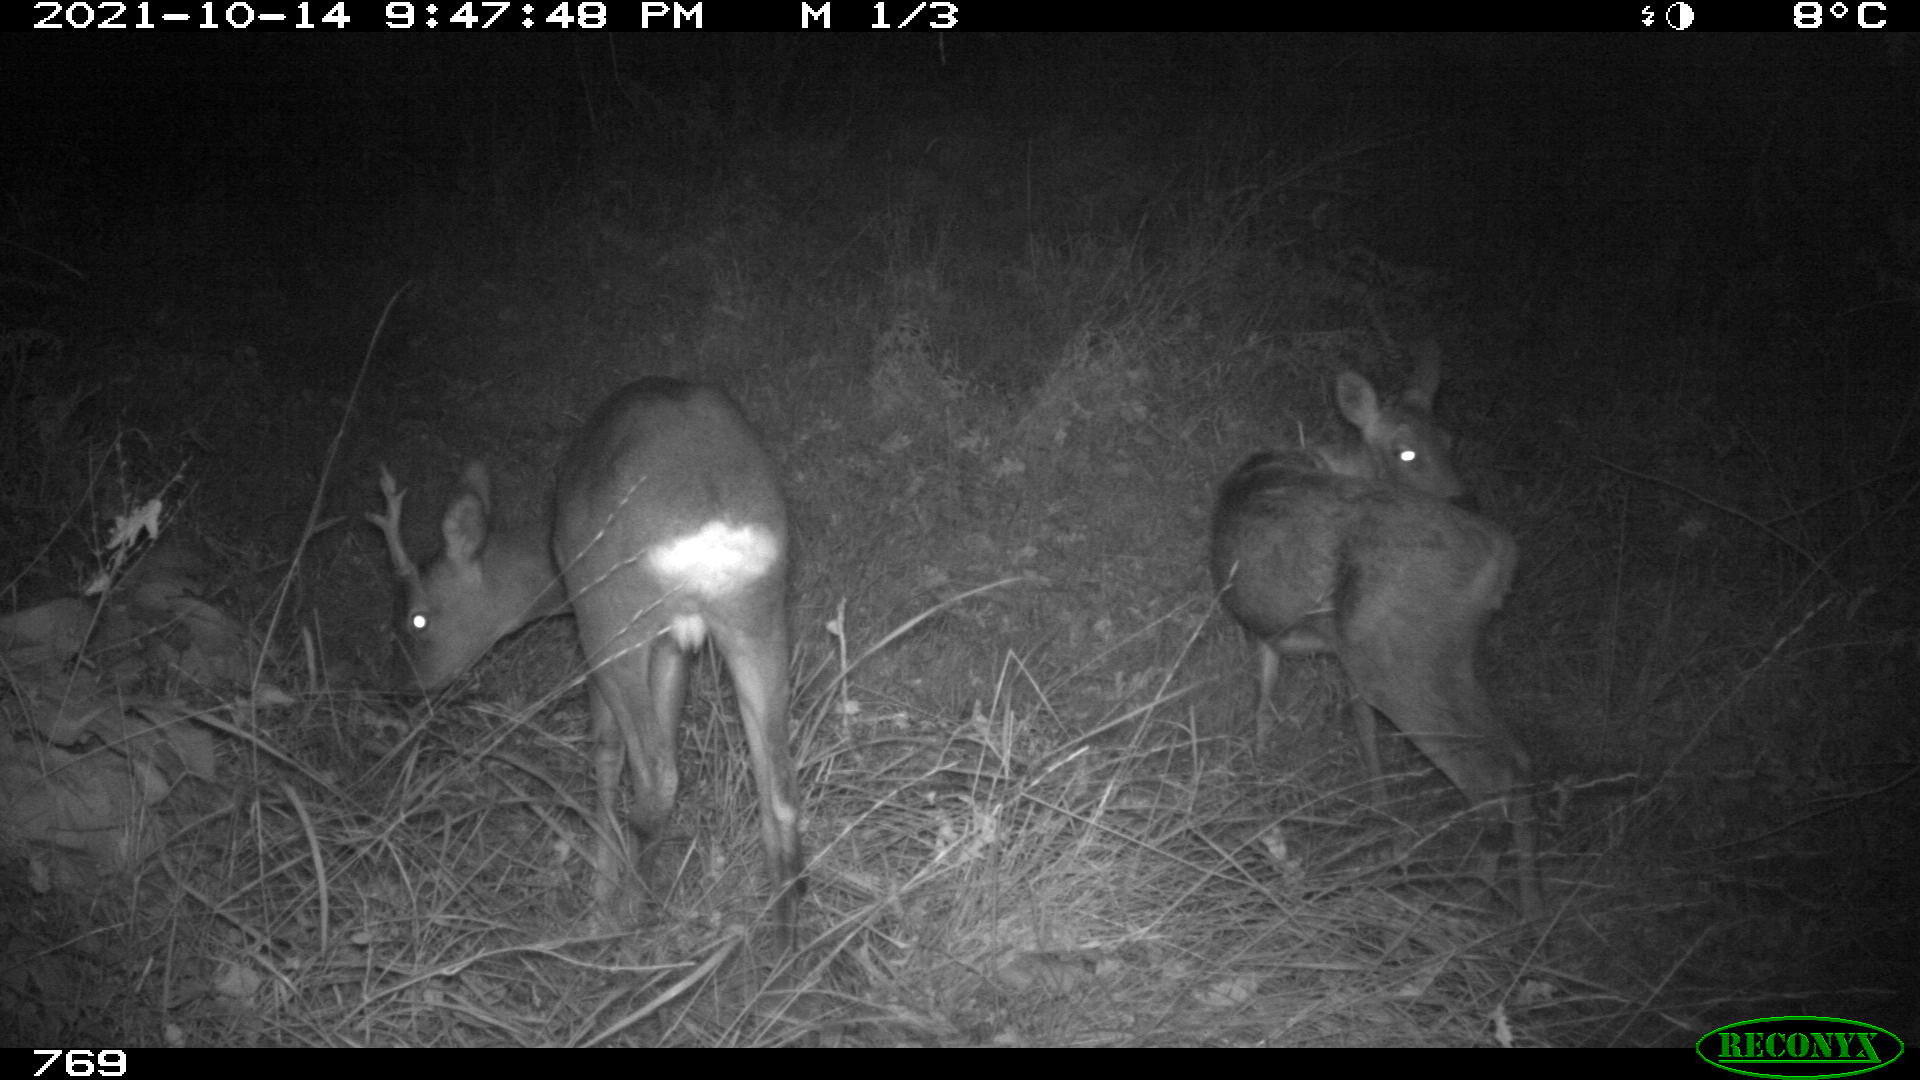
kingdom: Animalia
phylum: Chordata
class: Mammalia
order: Artiodactyla
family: Cervidae
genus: Capreolus
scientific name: Capreolus capreolus
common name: Western roe deer
